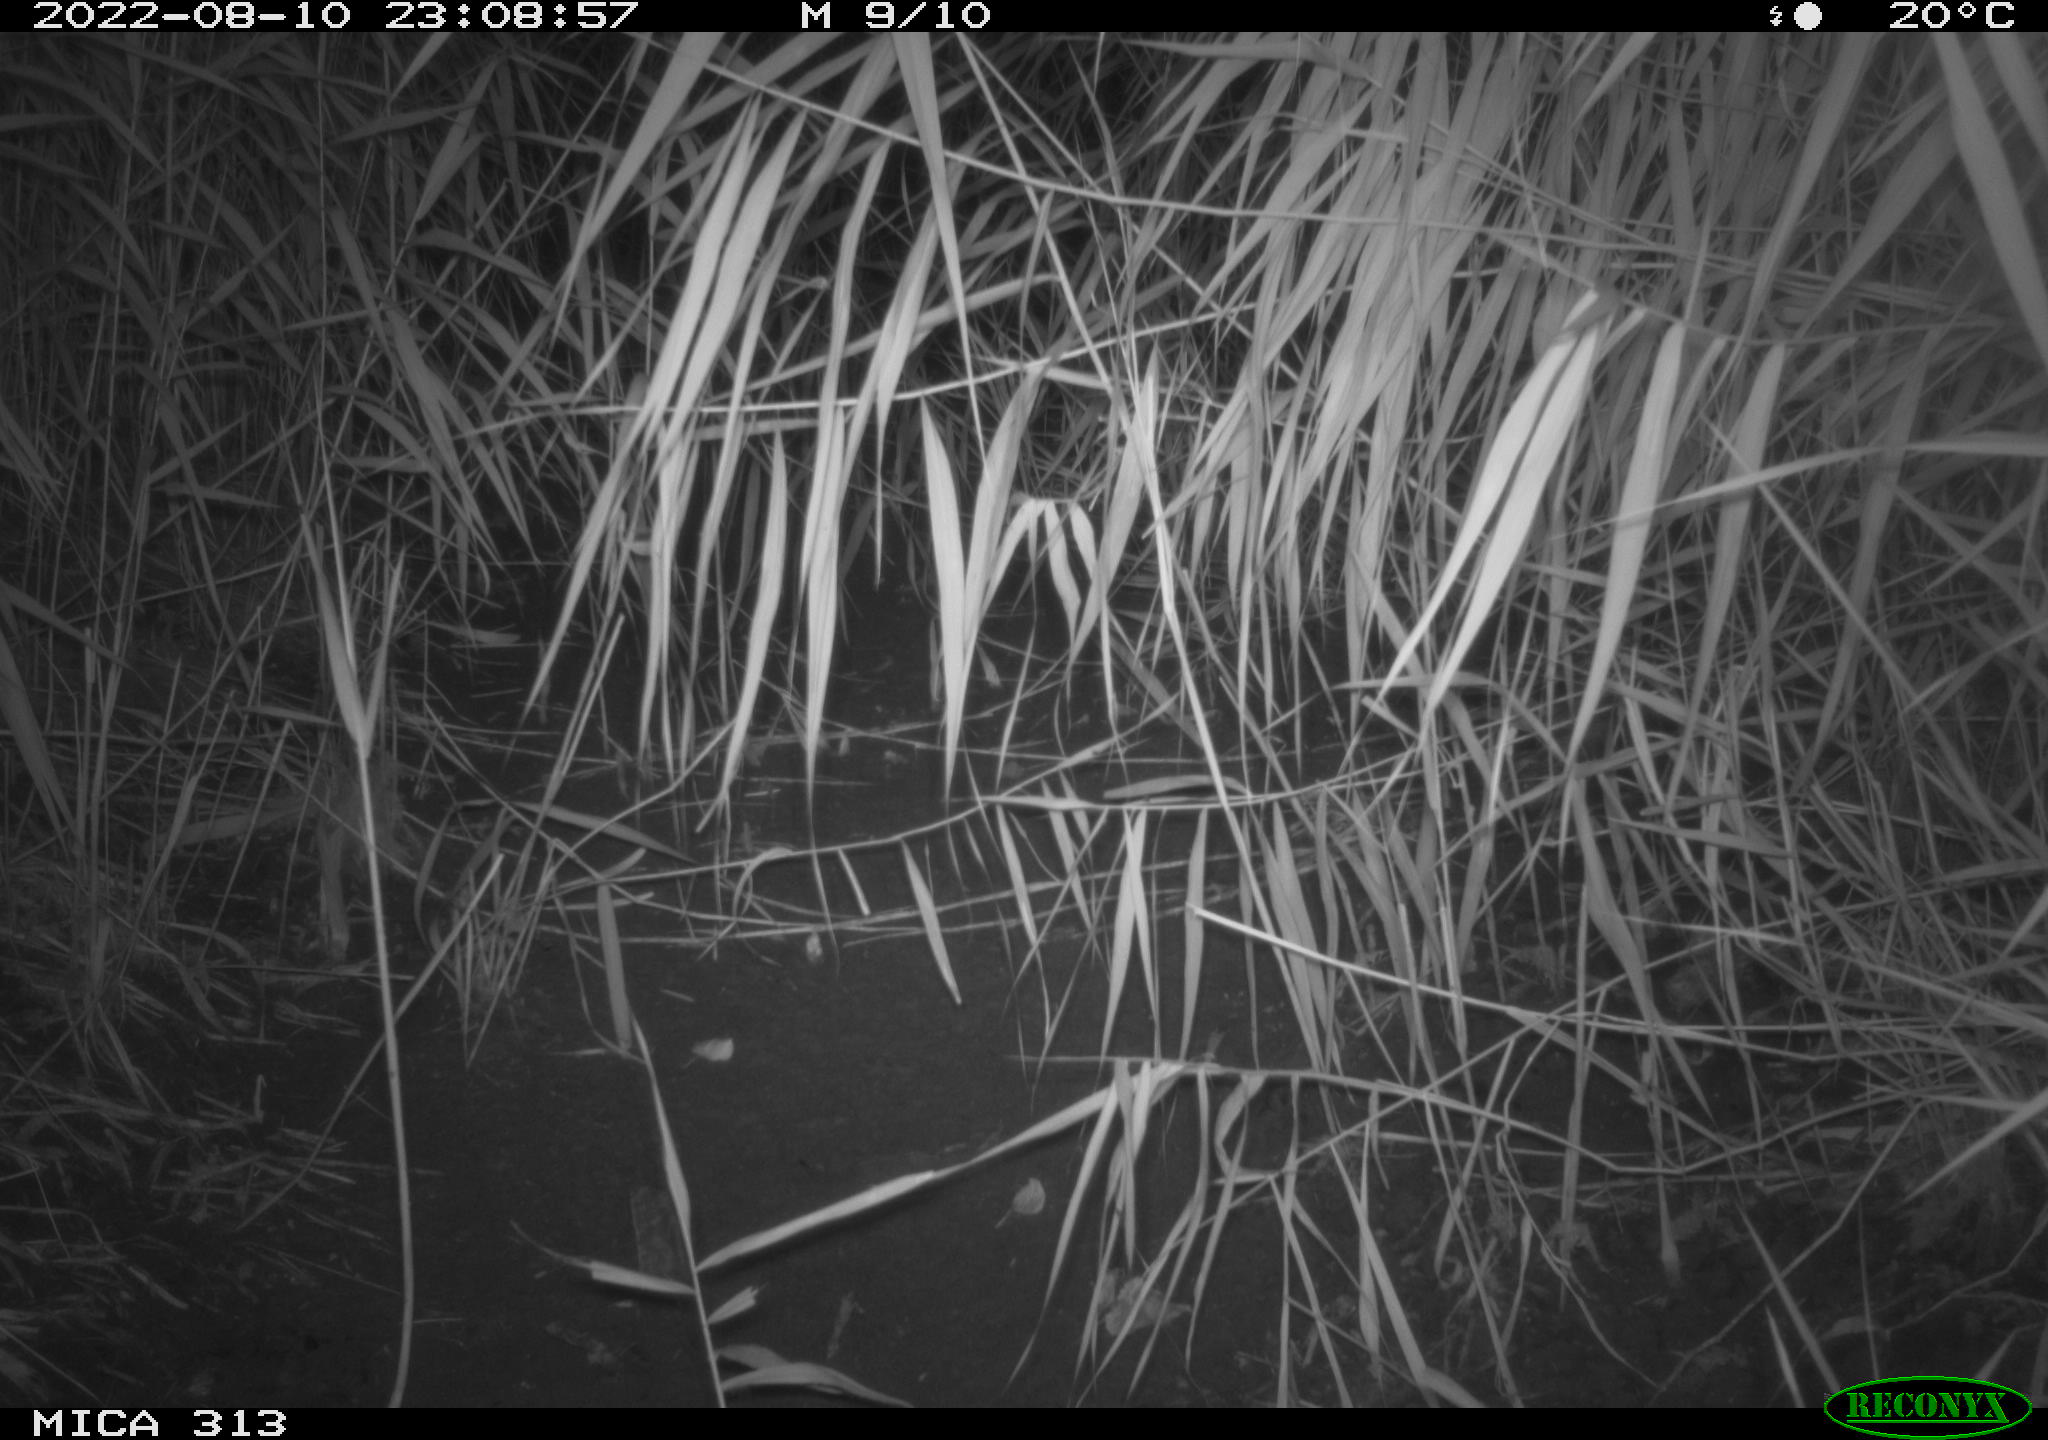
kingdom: Animalia
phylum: Chordata
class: Mammalia
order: Rodentia
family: Muridae
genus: Rattus
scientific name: Rattus norvegicus
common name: Brown rat
